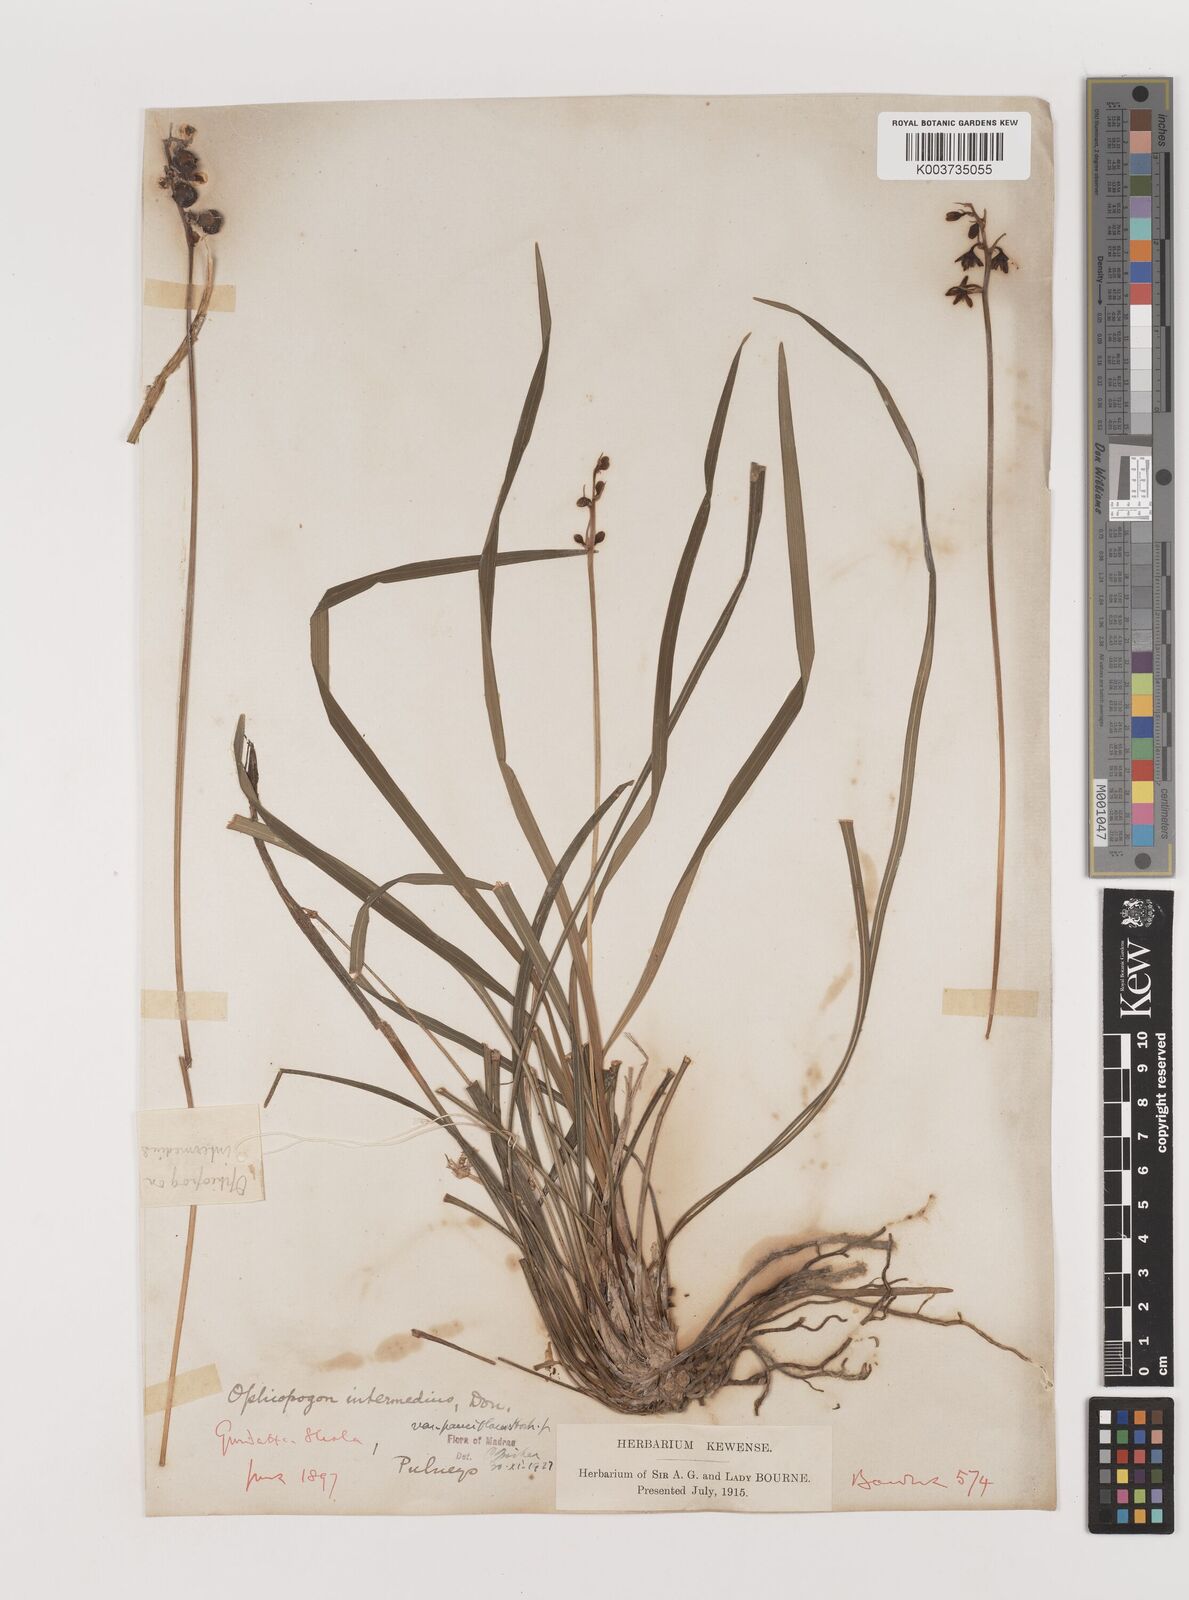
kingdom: Plantae
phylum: Tracheophyta
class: Liliopsida
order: Asparagales
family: Asparagaceae
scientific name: Asparagaceae
